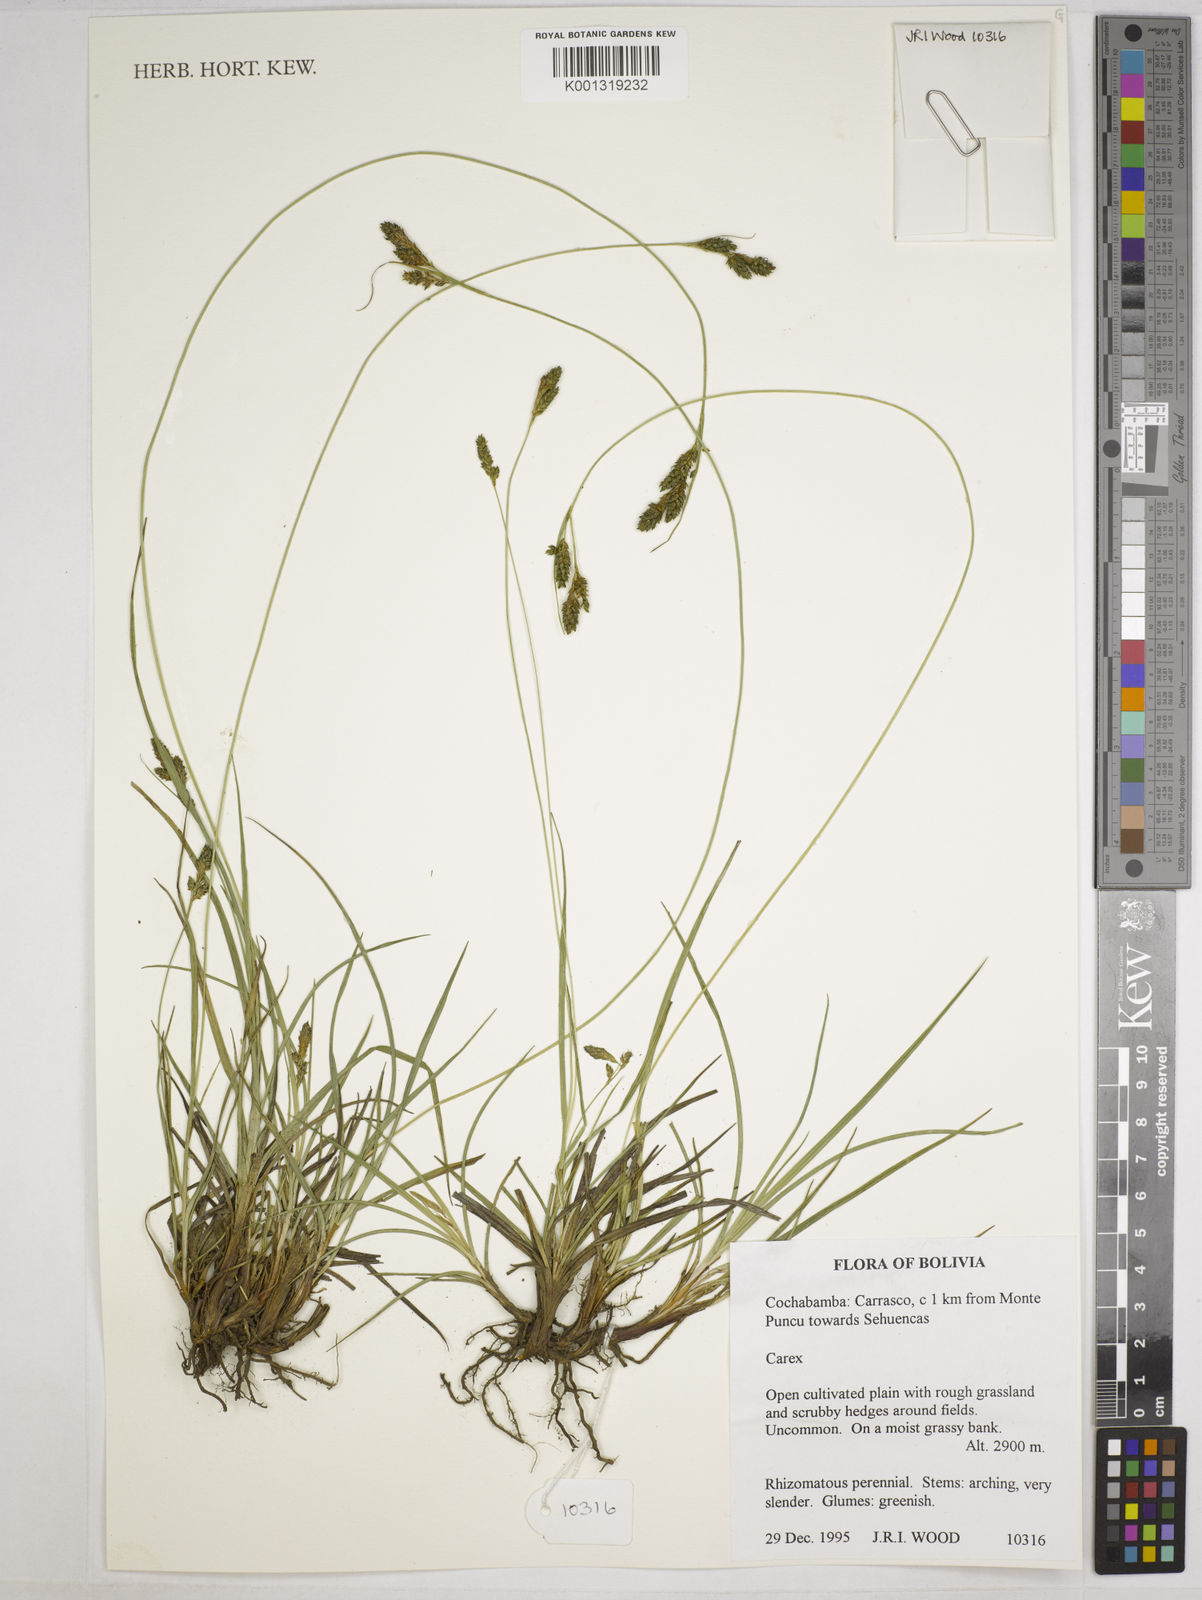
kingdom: Plantae
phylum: Tracheophyta
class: Liliopsida
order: Poales
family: Cyperaceae
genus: Carex
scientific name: Carex boliviensis
